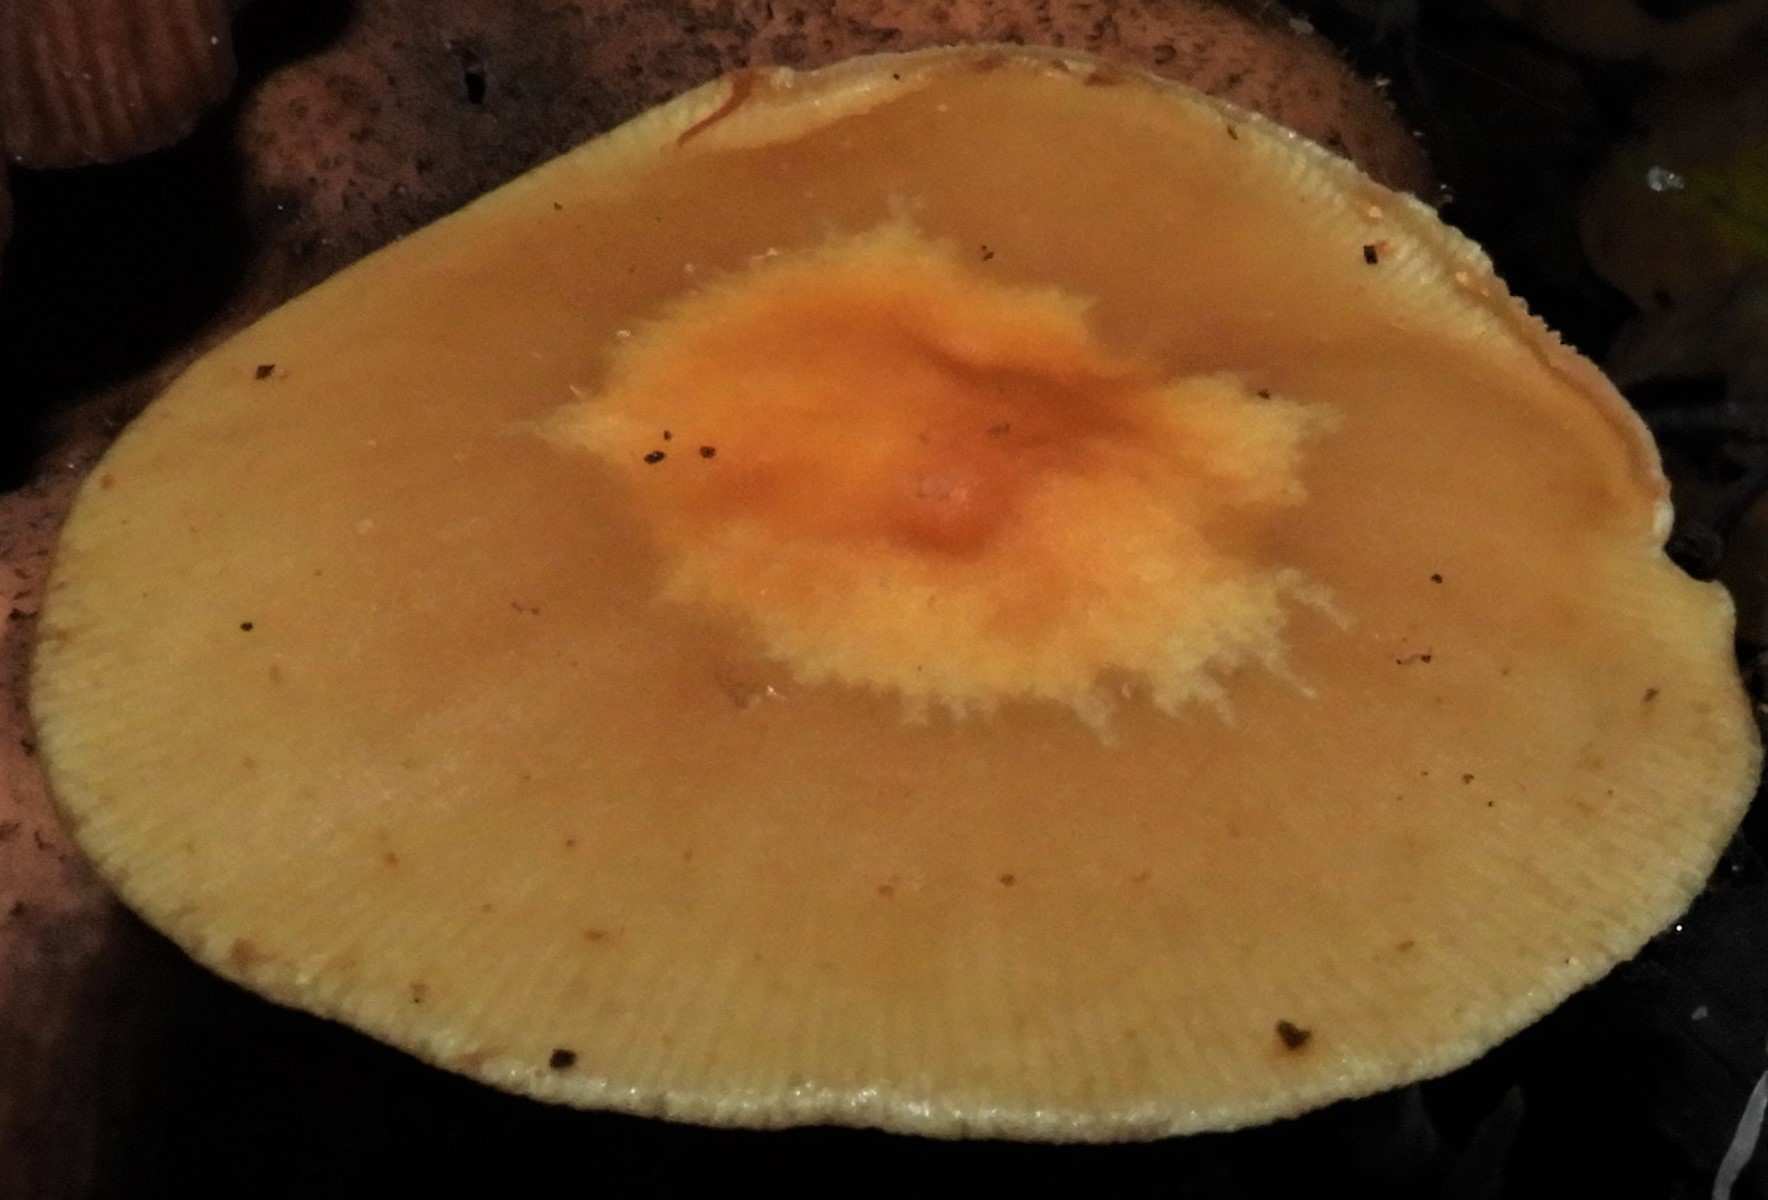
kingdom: Fungi
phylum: Basidiomycota
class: Agaricomycetes
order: Agaricales
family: Strophariaceae
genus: Kuehneromyces
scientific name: Kuehneromyces mutabilis
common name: foranderlig skælhat
